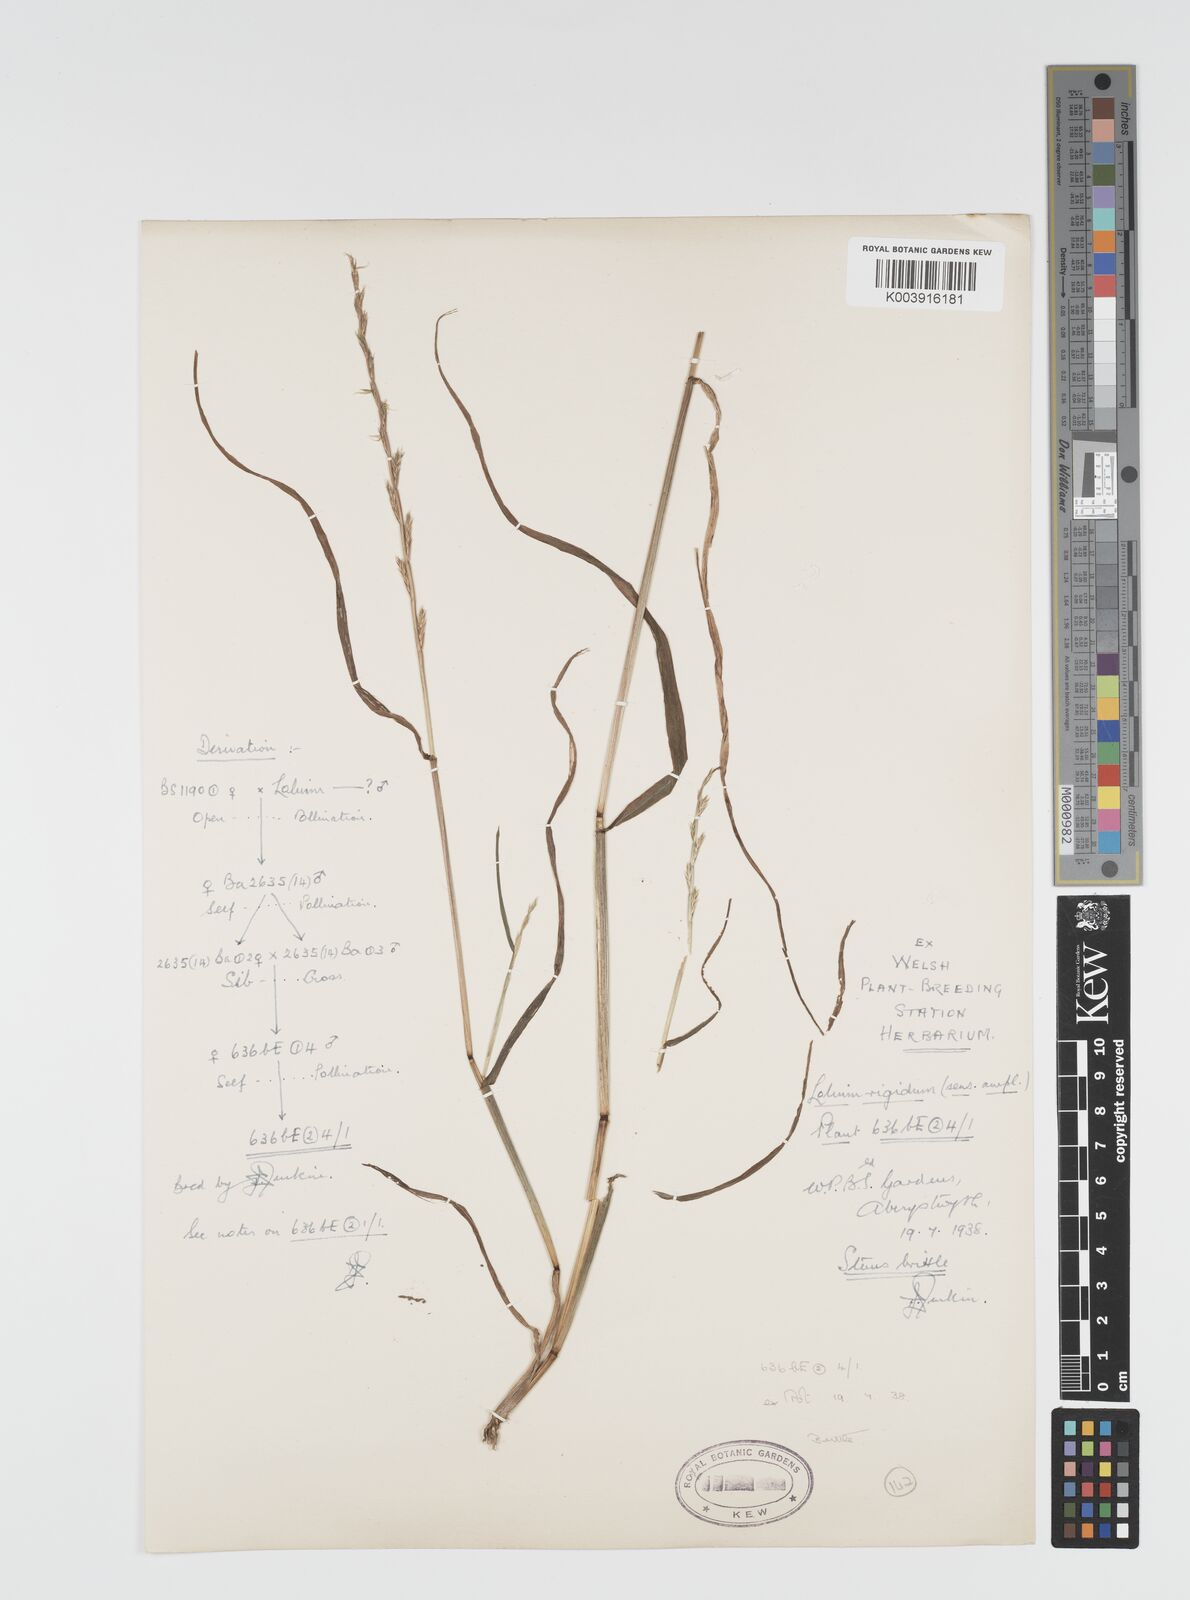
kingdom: Plantae
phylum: Tracheophyta
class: Liliopsida
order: Poales
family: Poaceae
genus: Lolium
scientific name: Lolium rigidum
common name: Wimmera ryegrass
